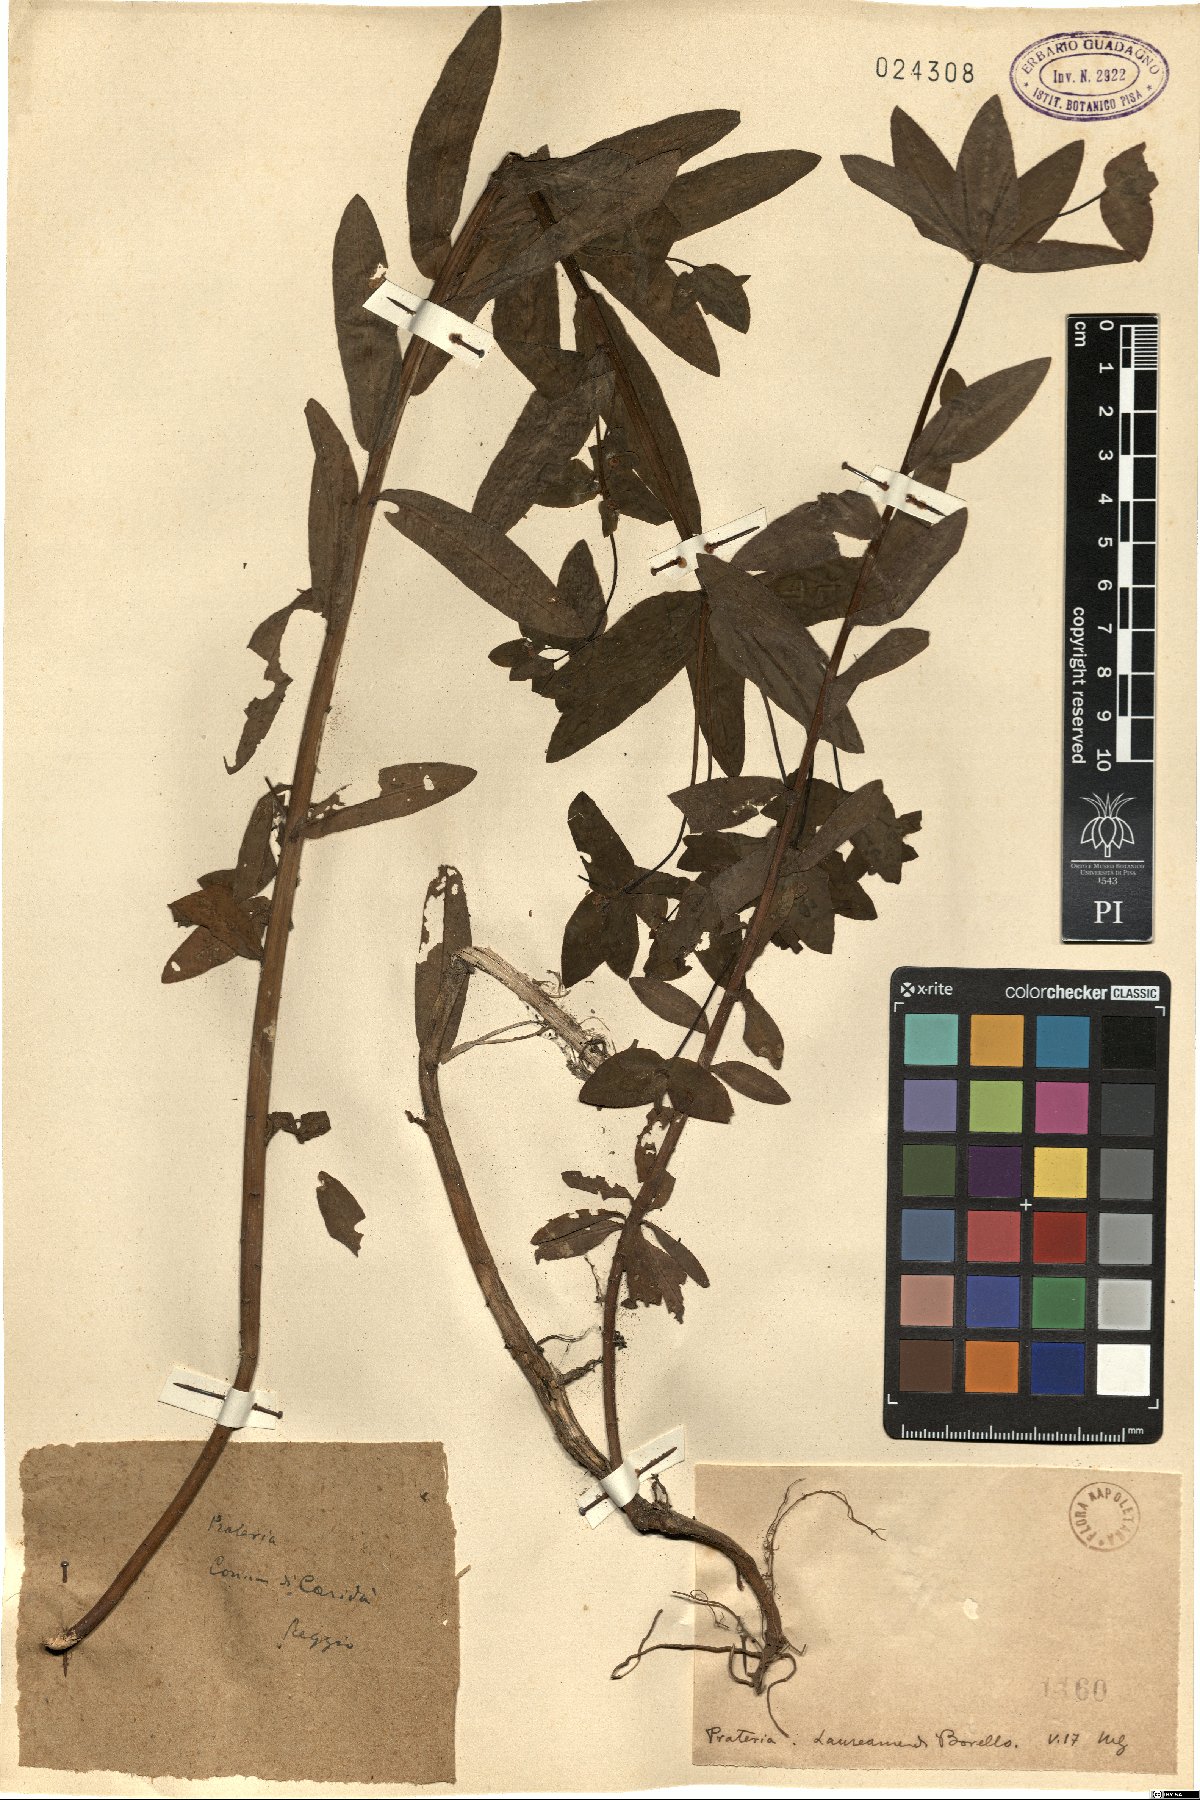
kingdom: Plantae
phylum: Tracheophyta
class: Magnoliopsida
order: Malpighiales
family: Euphorbiaceae
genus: Euphorbia
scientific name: Euphorbia
